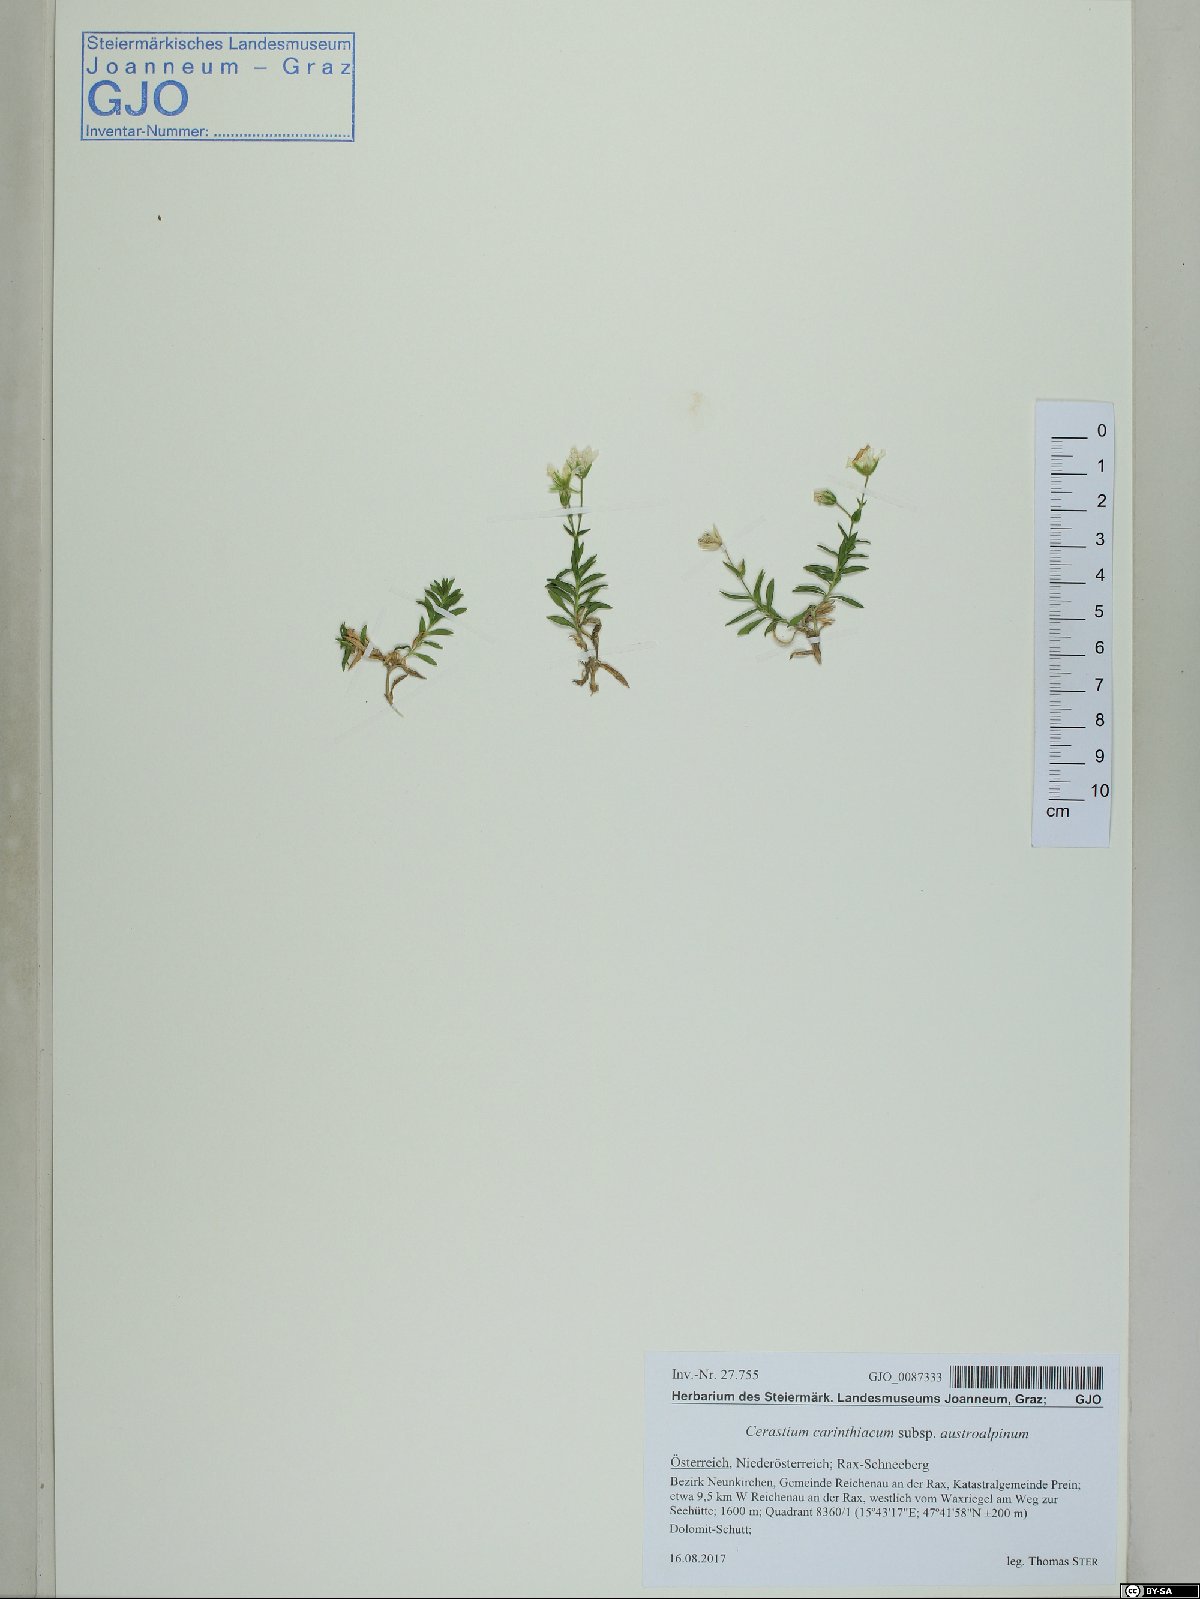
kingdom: Plantae
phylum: Tracheophyta
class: Magnoliopsida
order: Caryophyllales
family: Caryophyllaceae
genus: Cerastium
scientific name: Cerastium carinthiacum
